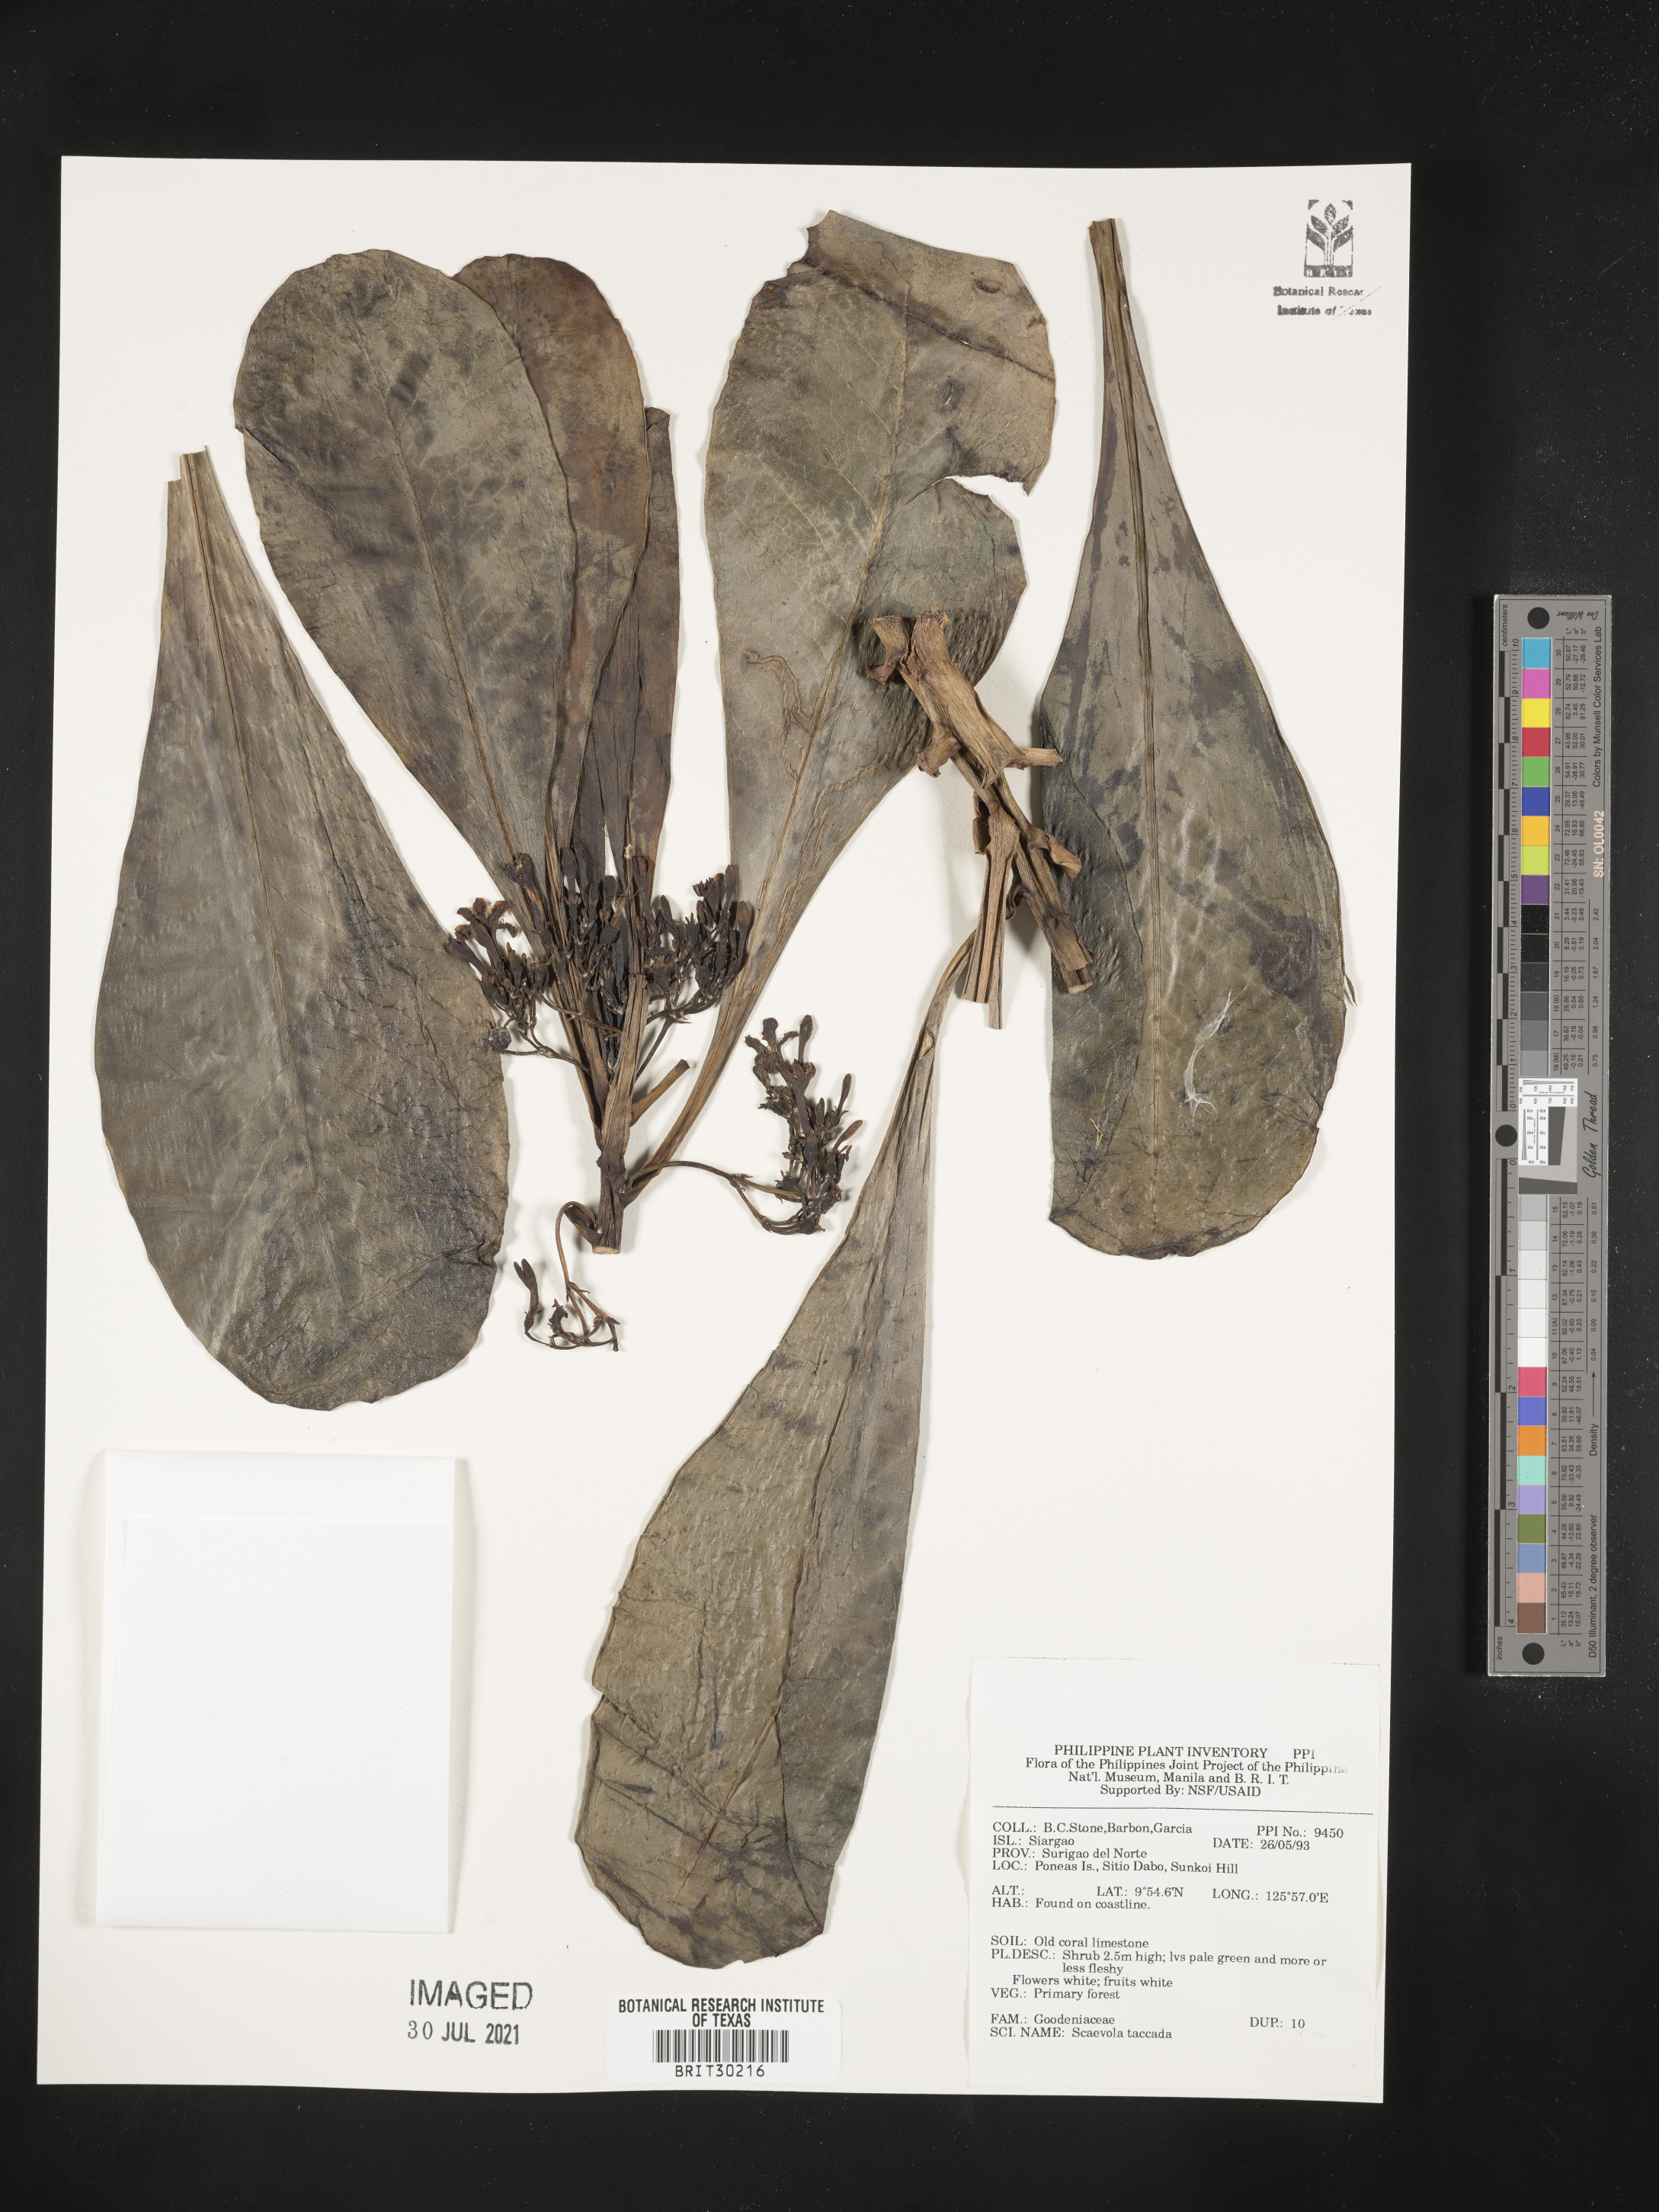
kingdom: Plantae
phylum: Tracheophyta
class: Magnoliopsida
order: Asterales
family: Goodeniaceae
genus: Scaevola
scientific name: Scaevola taccada
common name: Sea lettucetree
